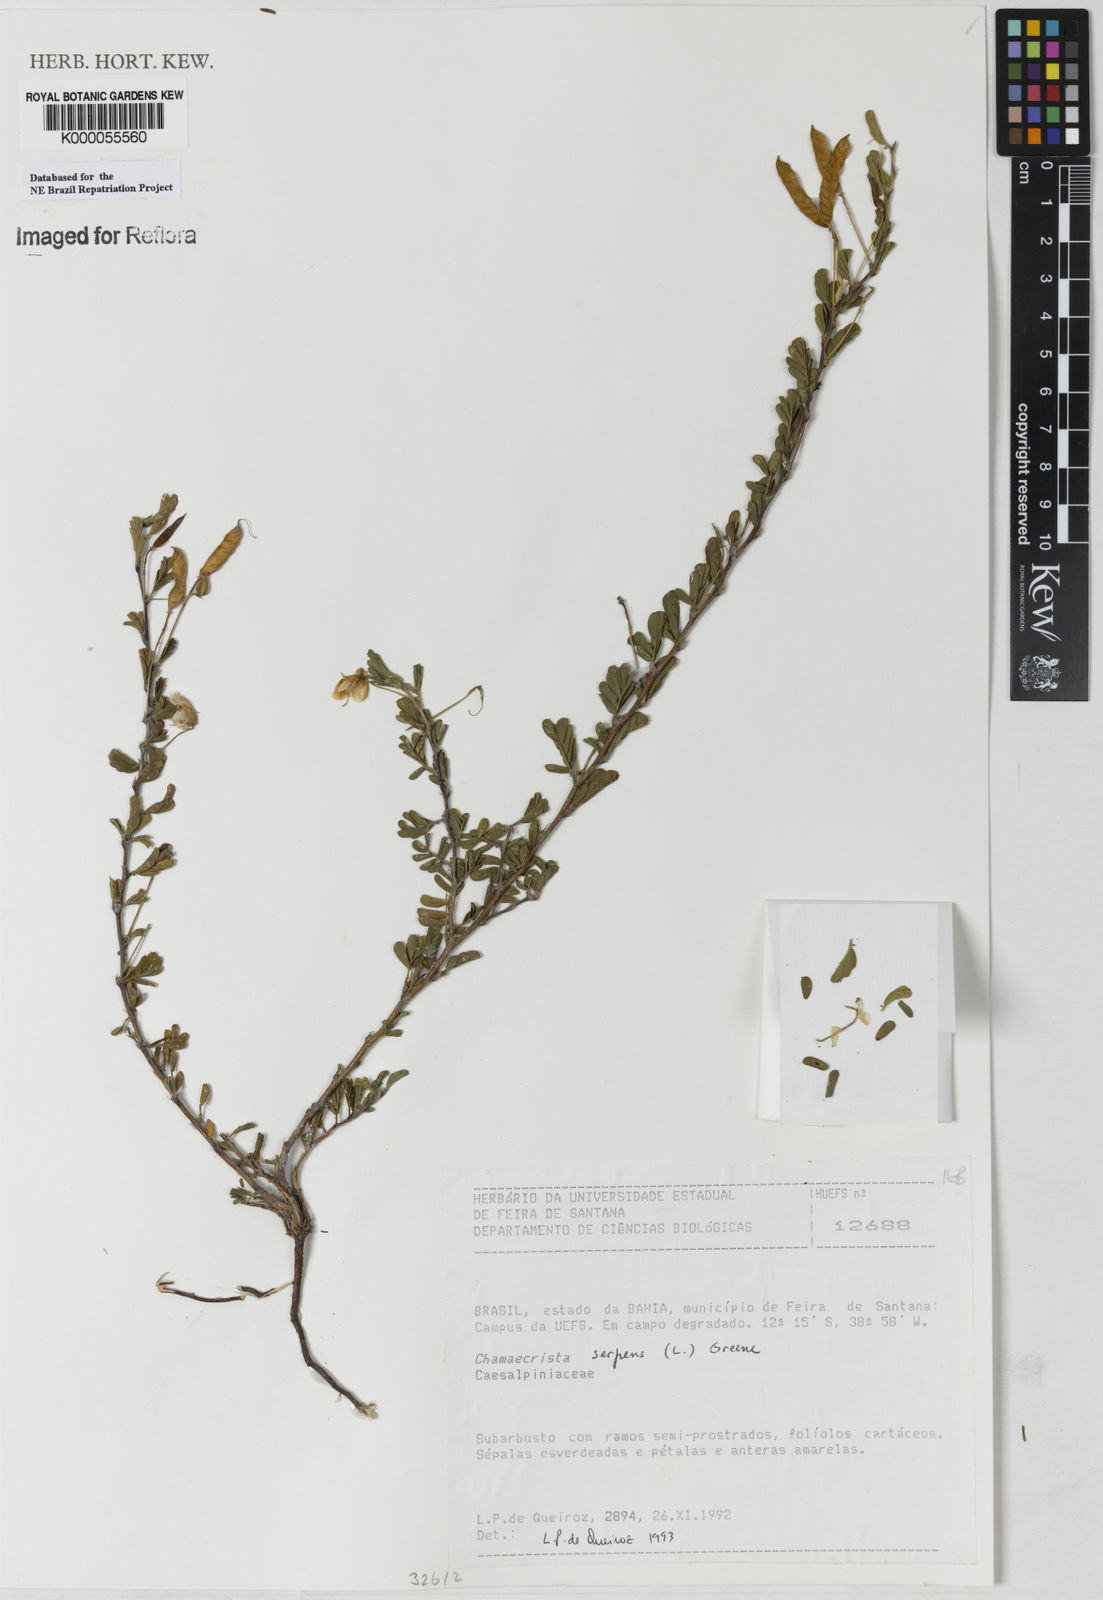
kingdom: Plantae
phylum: Tracheophyta
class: Magnoliopsida
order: Fabales
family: Fabaceae
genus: Chamaecrista
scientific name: Chamaecrista serpens
